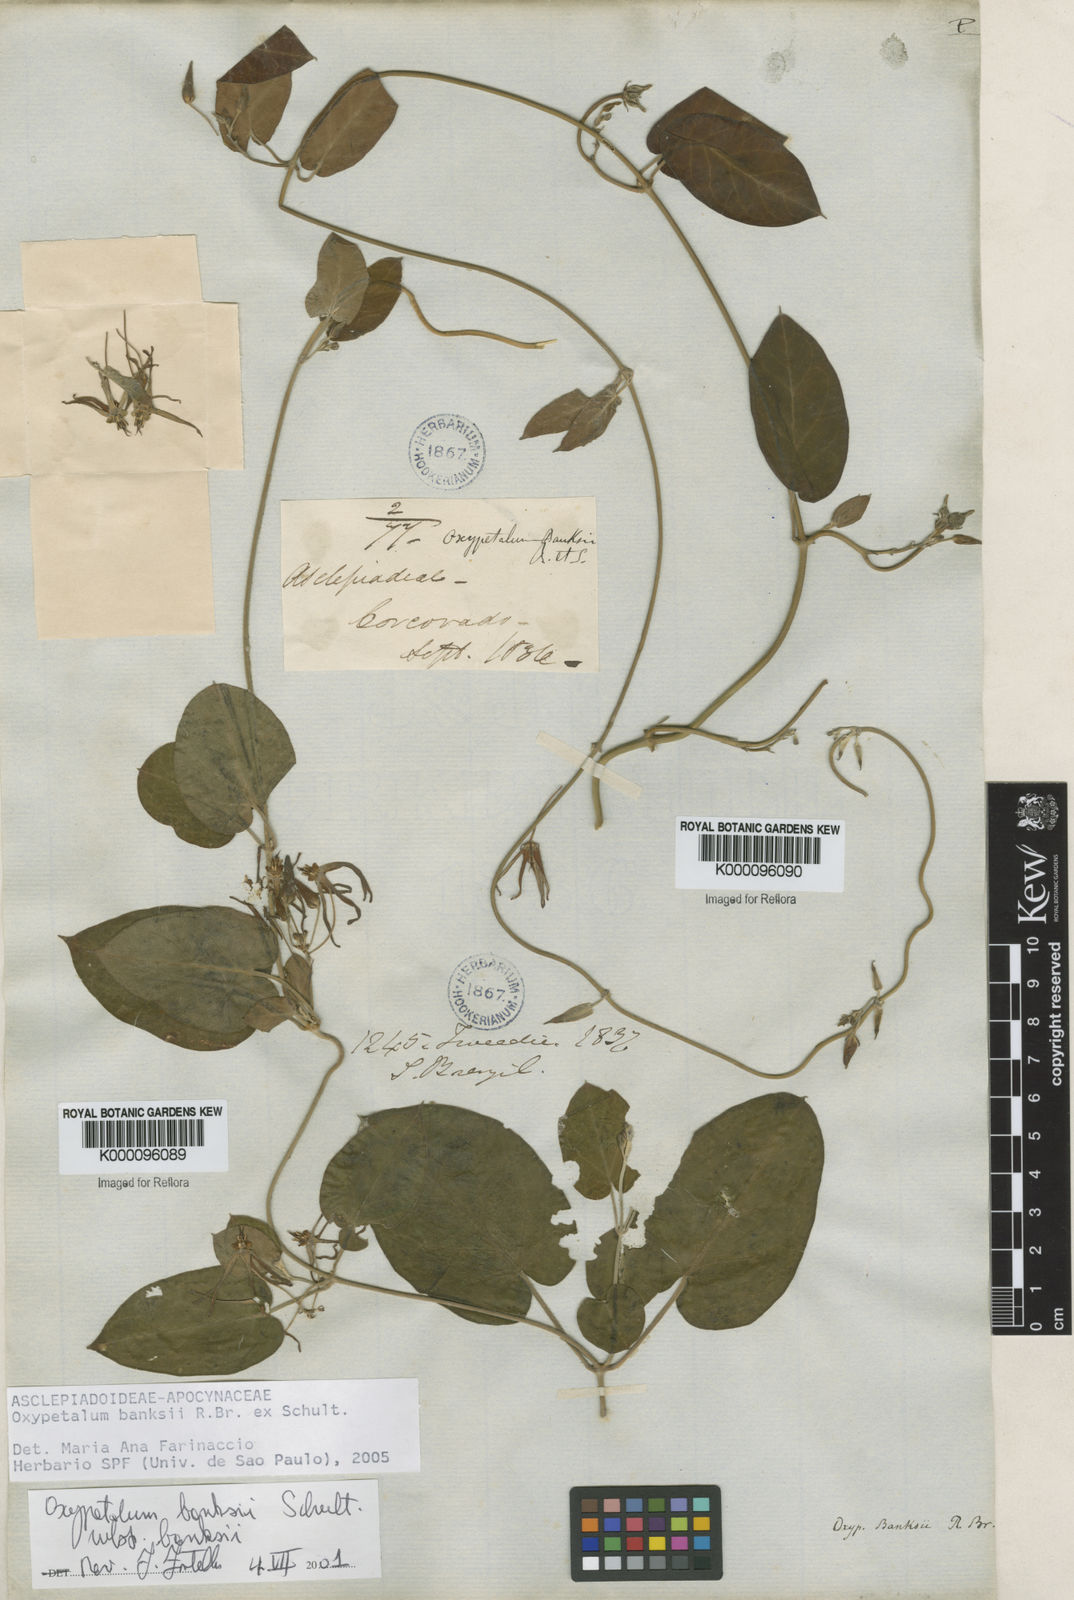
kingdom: Plantae
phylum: Tracheophyta
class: Magnoliopsida
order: Gentianales
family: Apocynaceae
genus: Oxypetalum
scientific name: Oxypetalum banksii
